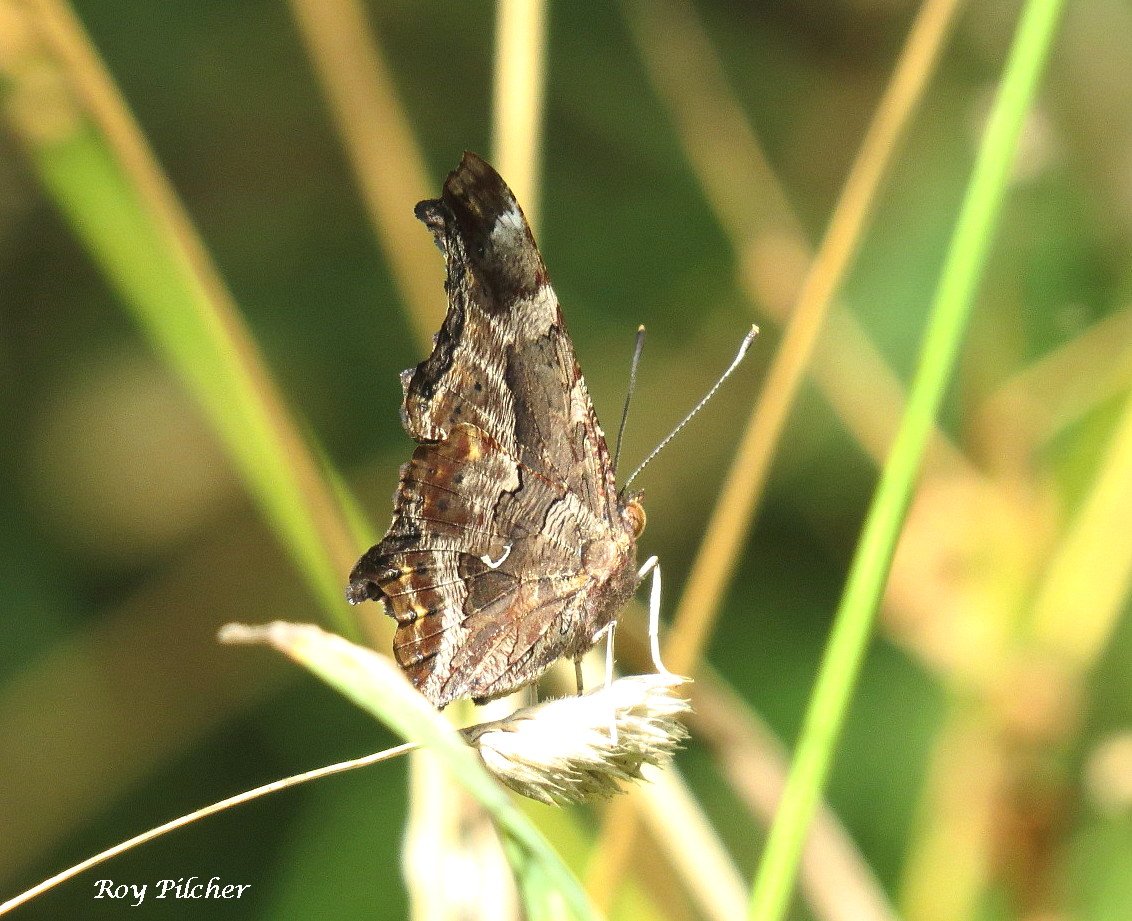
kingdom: Animalia
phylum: Arthropoda
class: Insecta
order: Lepidoptera
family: Nymphalidae
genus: Polygonia
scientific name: Polygonia comma
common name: Eastern Comma
